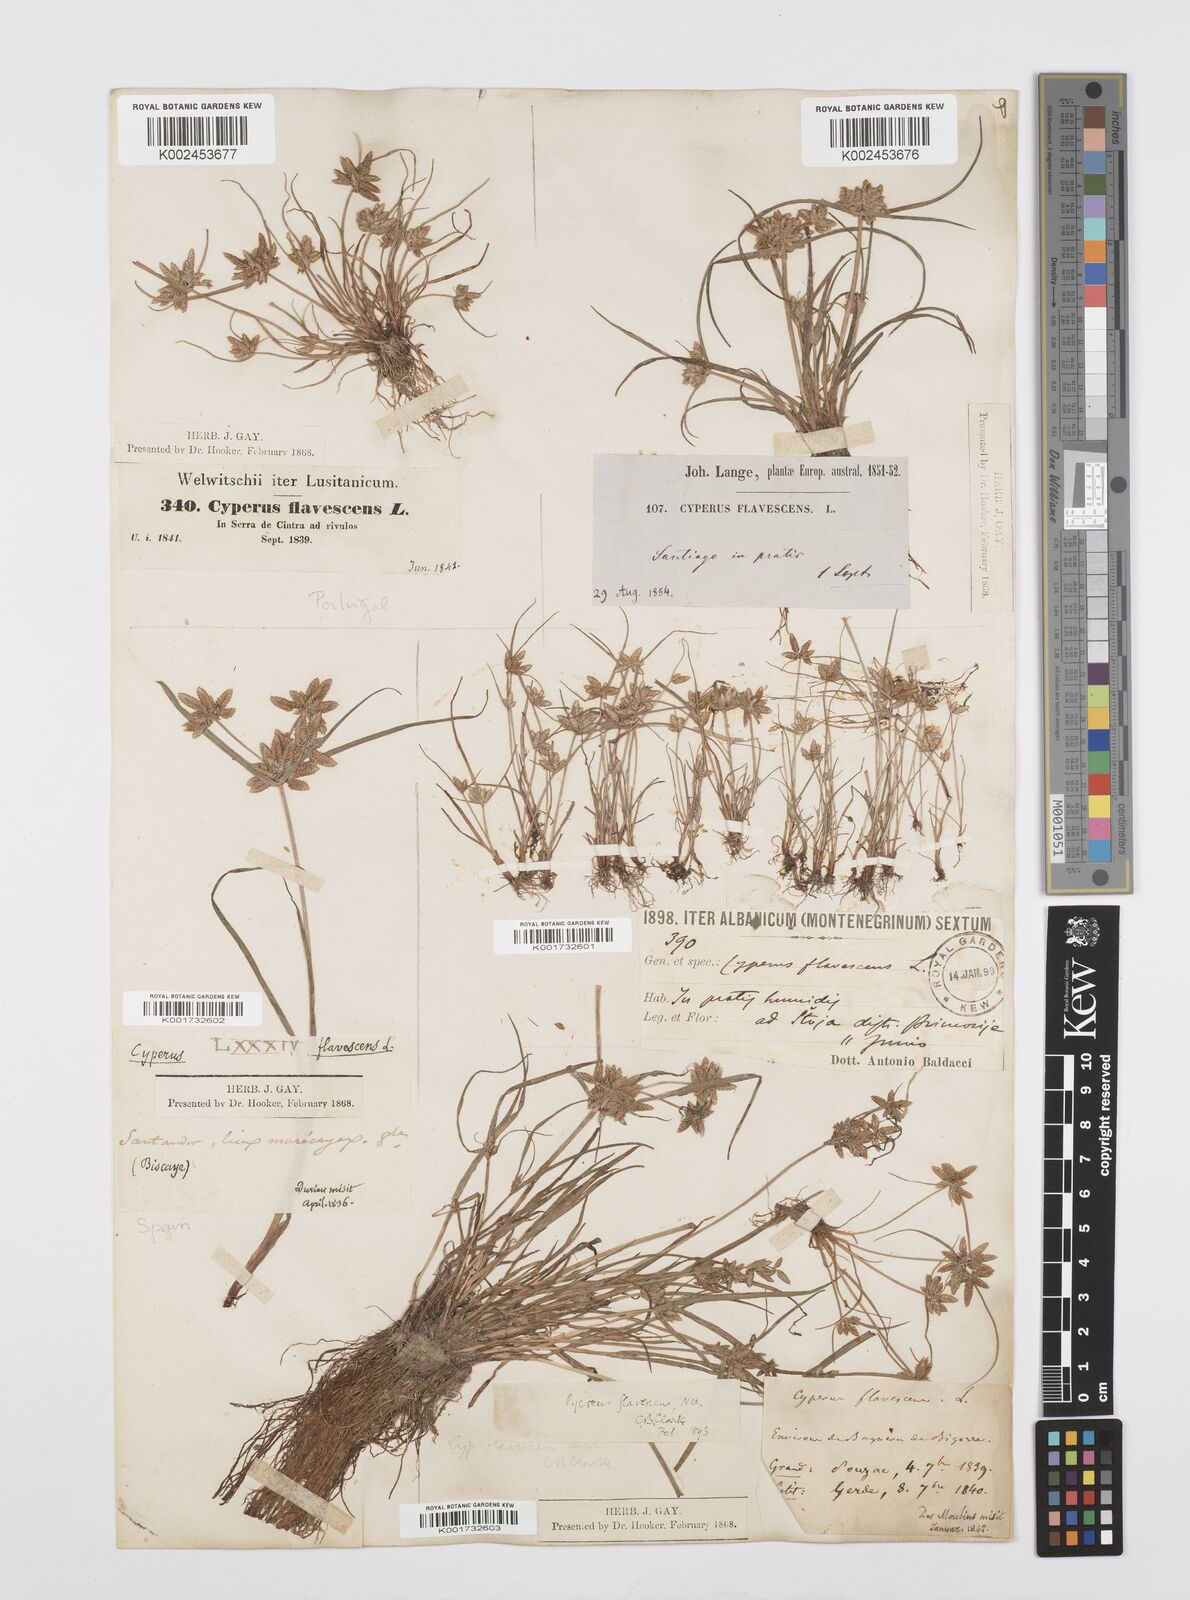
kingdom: Plantae
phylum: Tracheophyta
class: Liliopsida
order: Poales
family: Cyperaceae
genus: Cyperus
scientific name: Cyperus flavescens
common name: Yellow galingale
